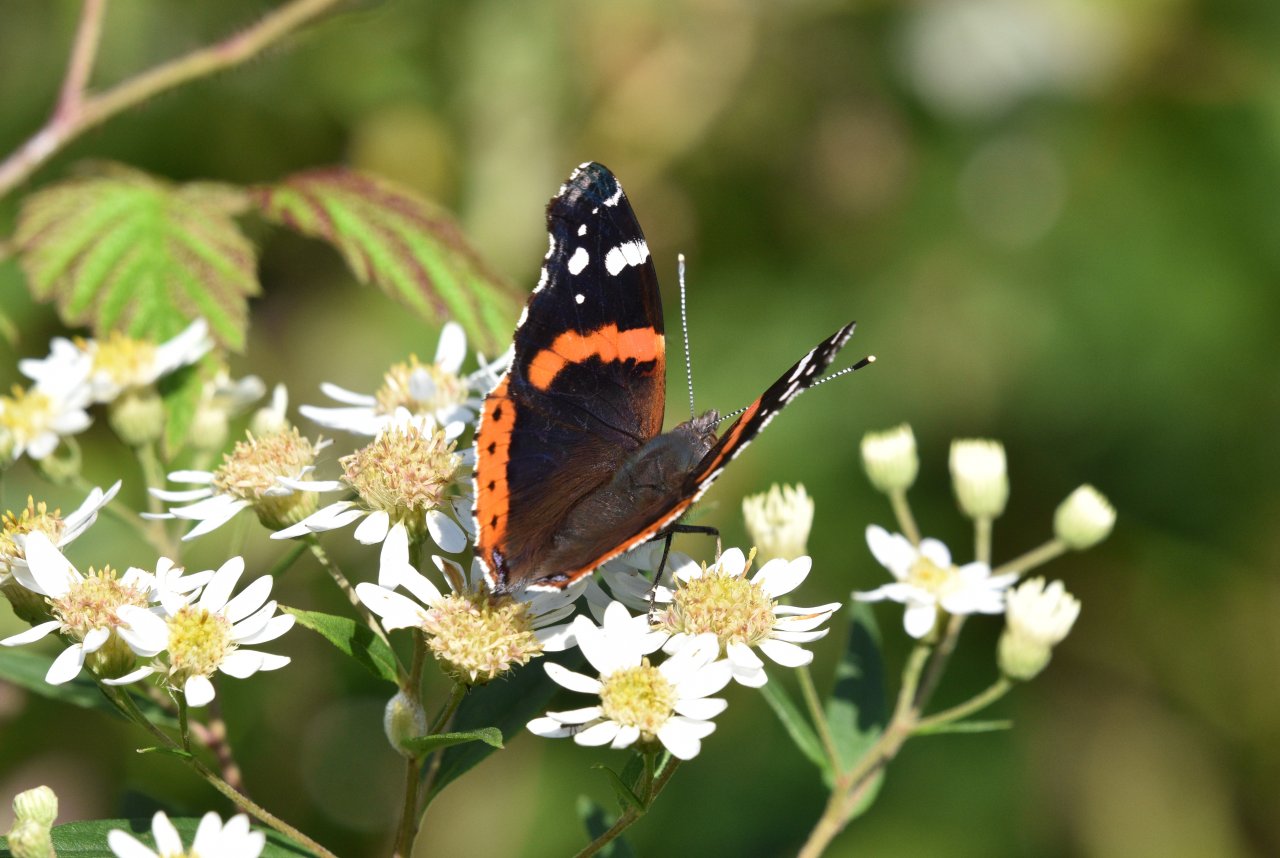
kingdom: Animalia
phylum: Arthropoda
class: Insecta
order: Lepidoptera
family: Nymphalidae
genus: Vanessa
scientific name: Vanessa atalanta
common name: Red Admiral
